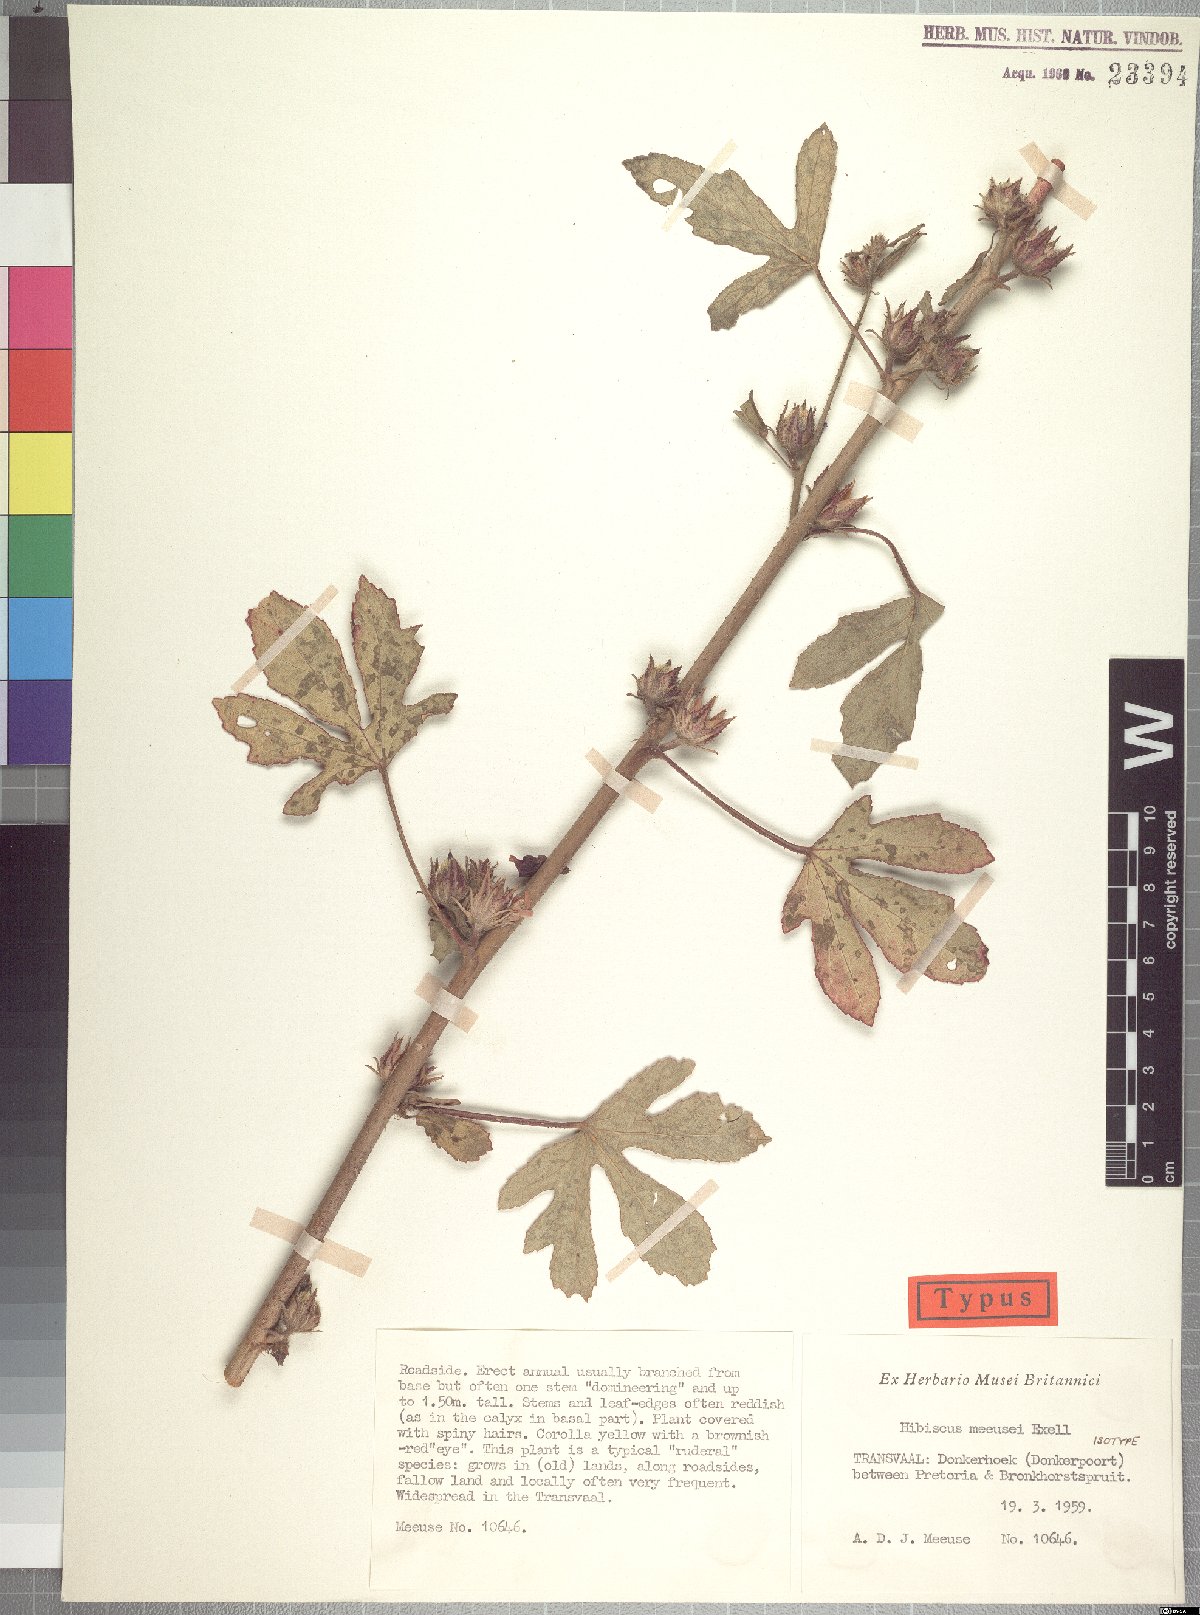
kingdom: Plantae
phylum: Tracheophyta
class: Magnoliopsida
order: Malvales
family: Malvaceae
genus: Hibiscus
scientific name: Hibiscus nigricaulis
